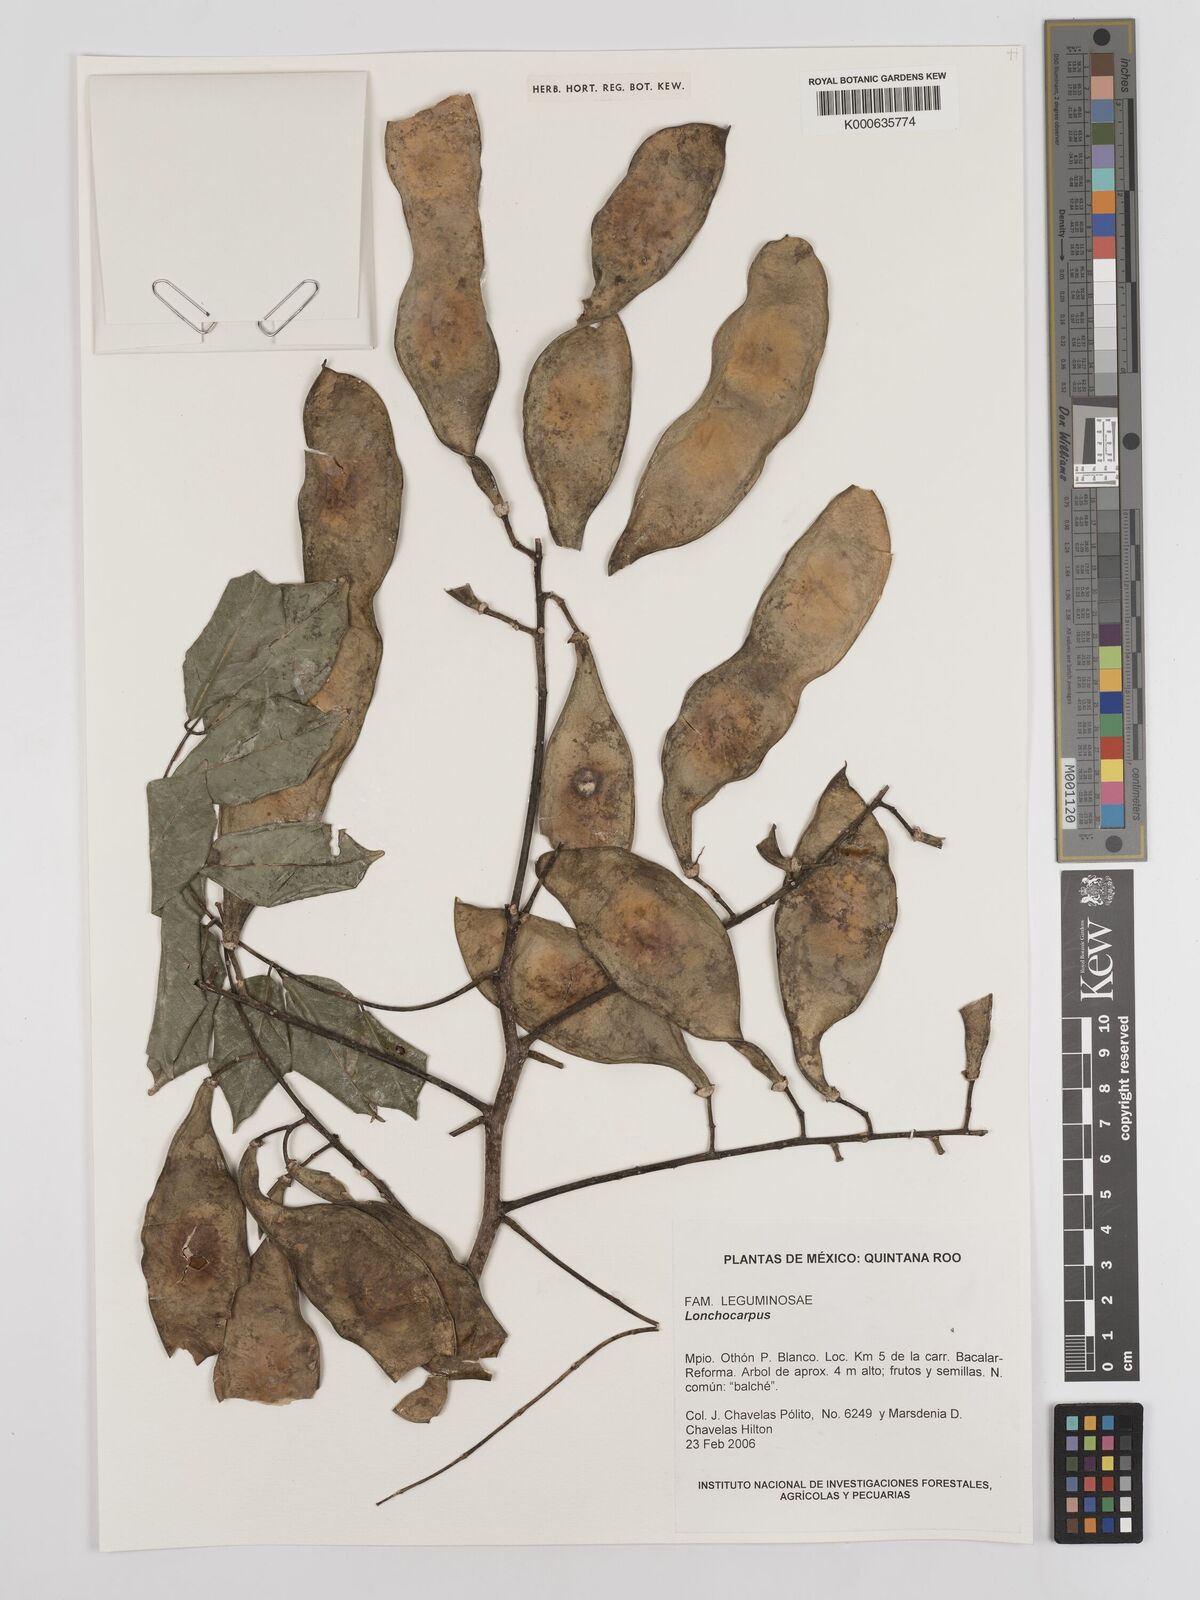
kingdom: Plantae
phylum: Tracheophyta
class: Magnoliopsida
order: Fabales
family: Fabaceae
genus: Lonchocarpus
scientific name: Lonchocarpus
